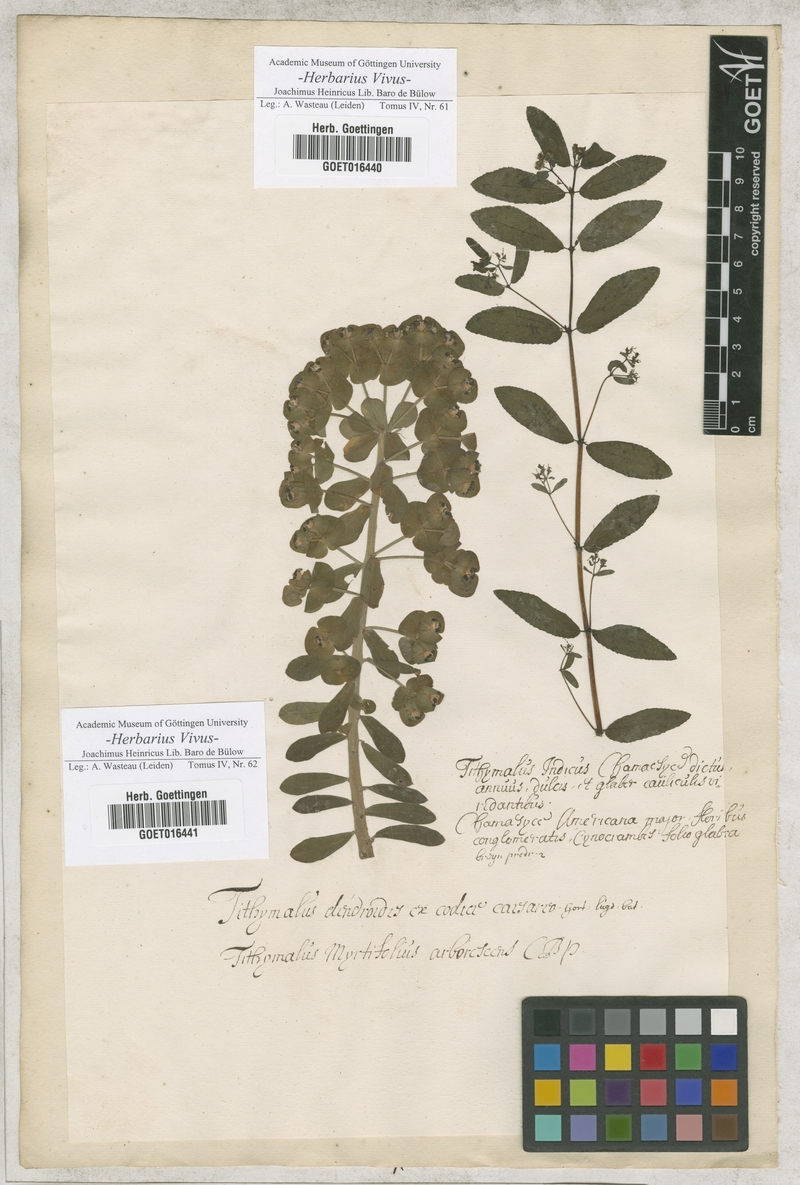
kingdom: Plantae
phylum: Tracheophyta
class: Magnoliopsida
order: Malpighiales
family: Euphorbiaceae
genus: Tithymalus
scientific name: Tithymalus
